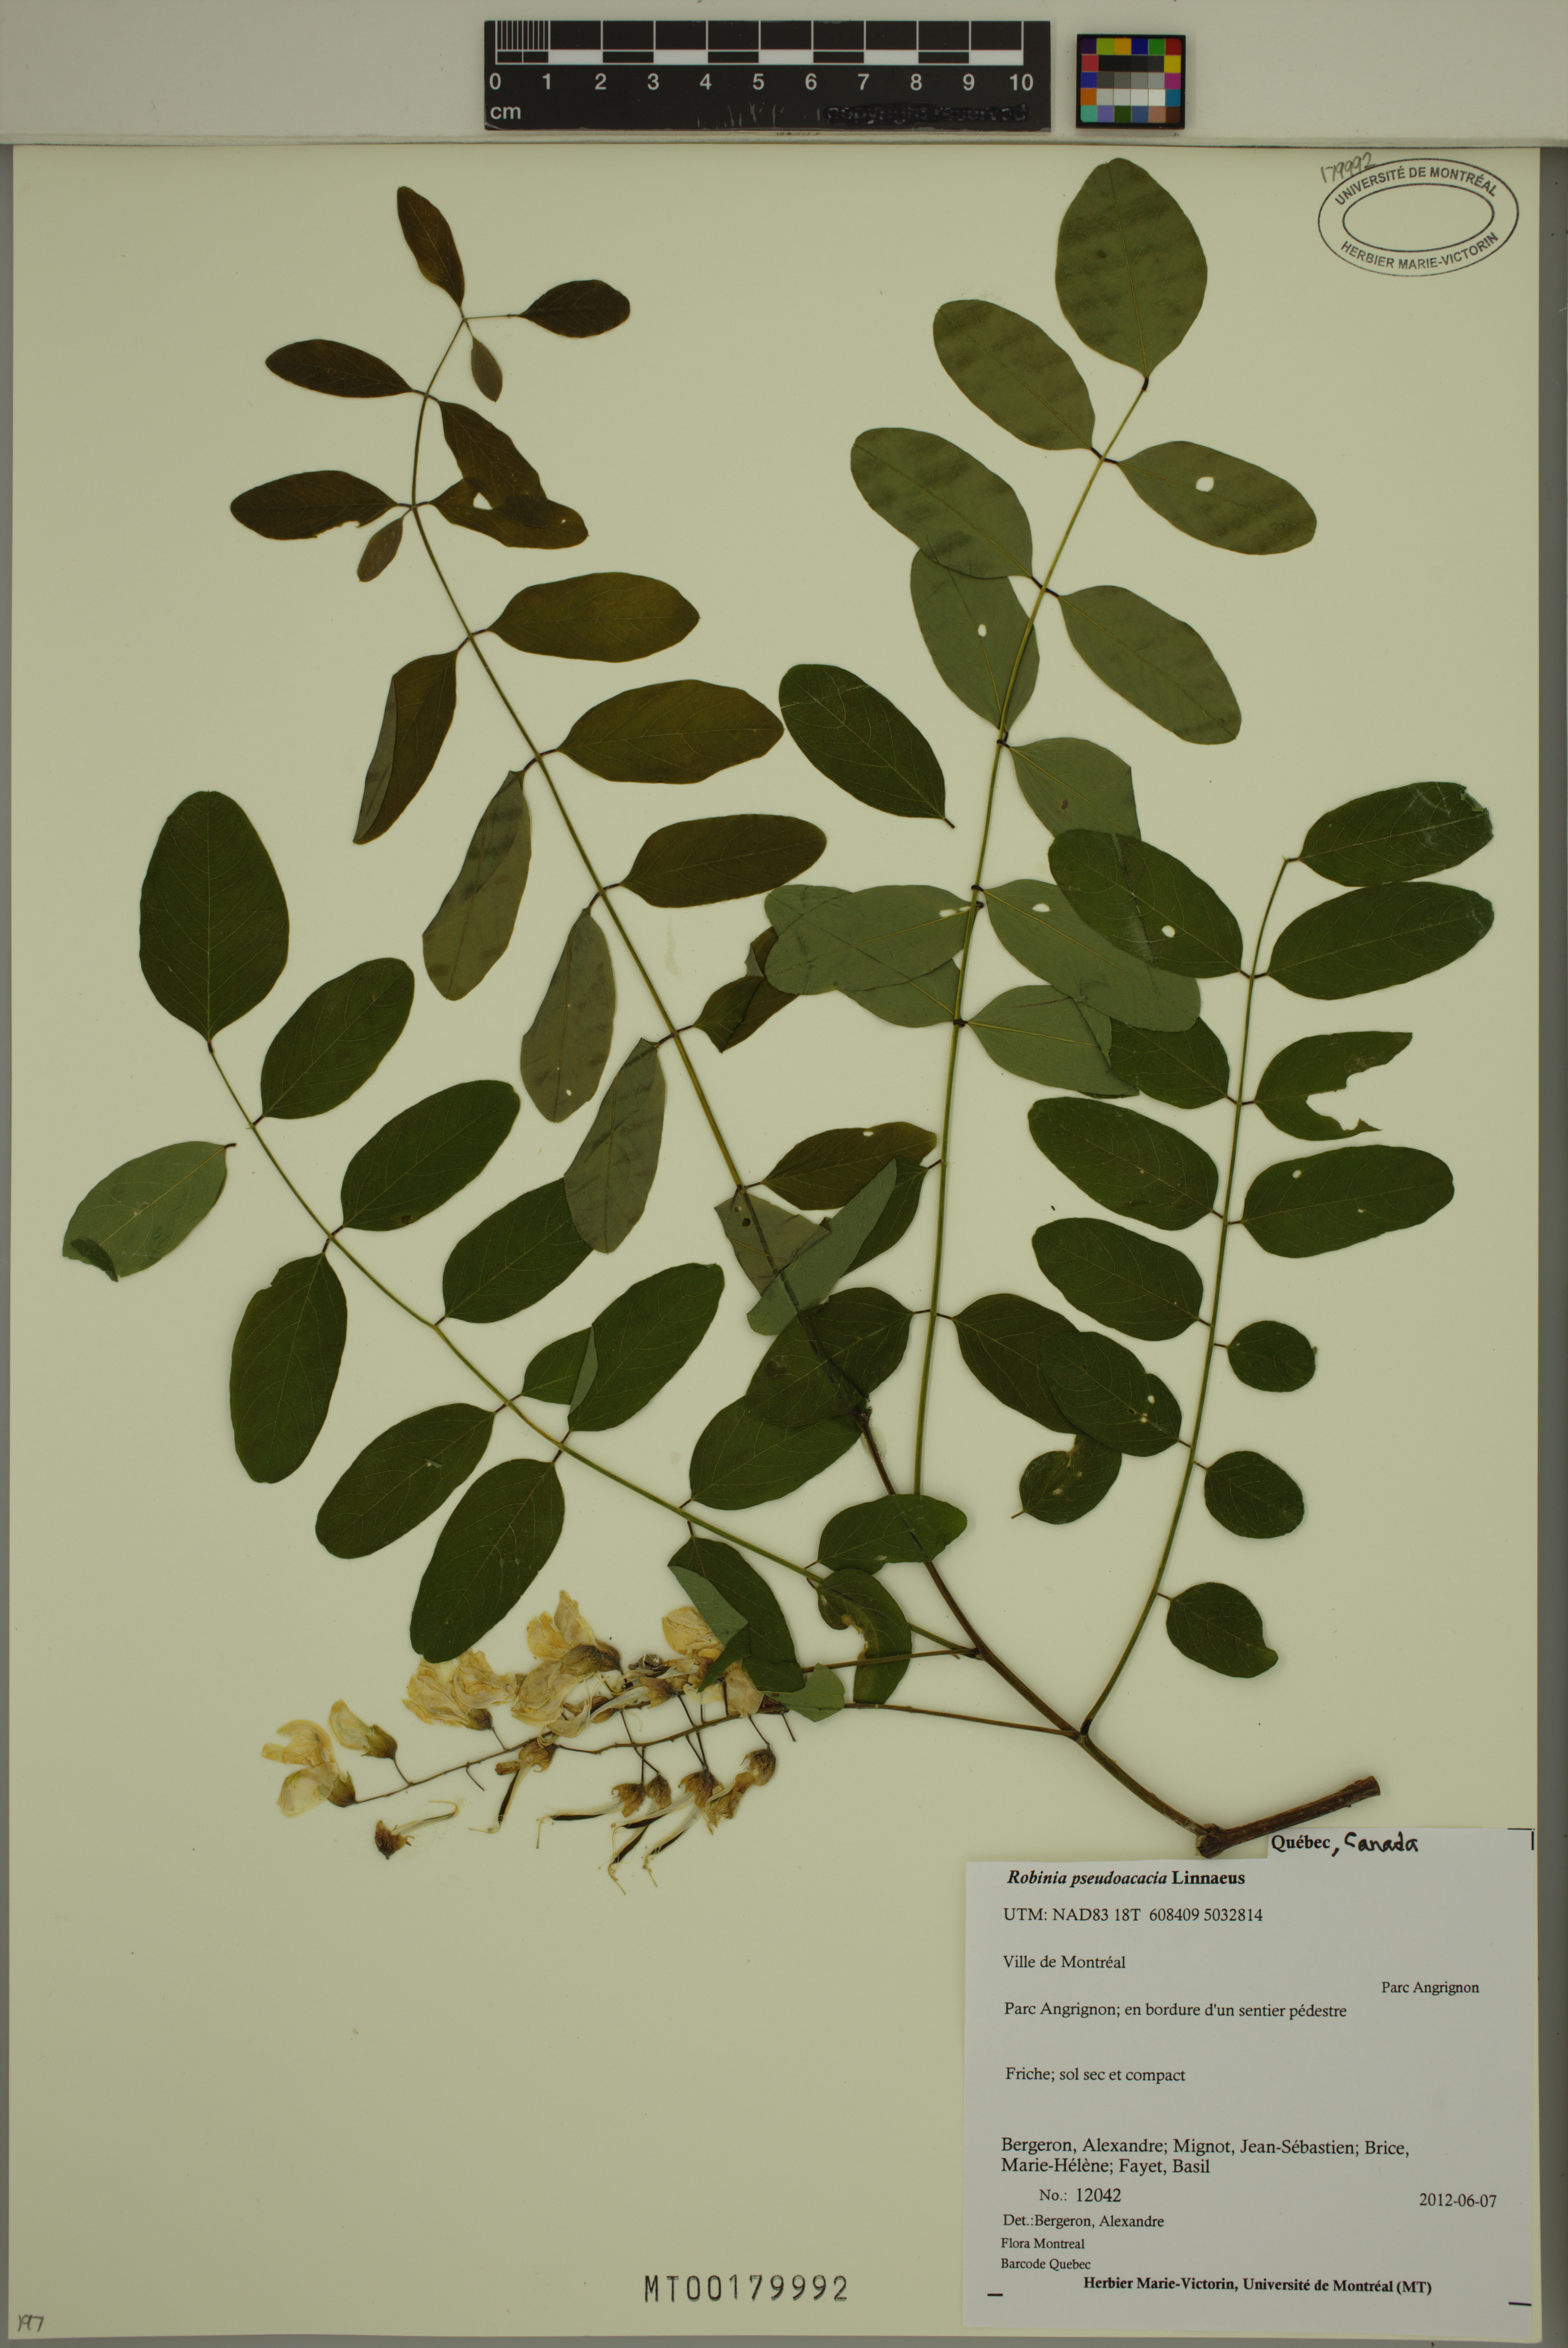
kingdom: Plantae
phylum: Tracheophyta
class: Magnoliopsida
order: Fabales
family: Fabaceae
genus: Robinia
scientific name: Robinia pseudoacacia
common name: Black locust
